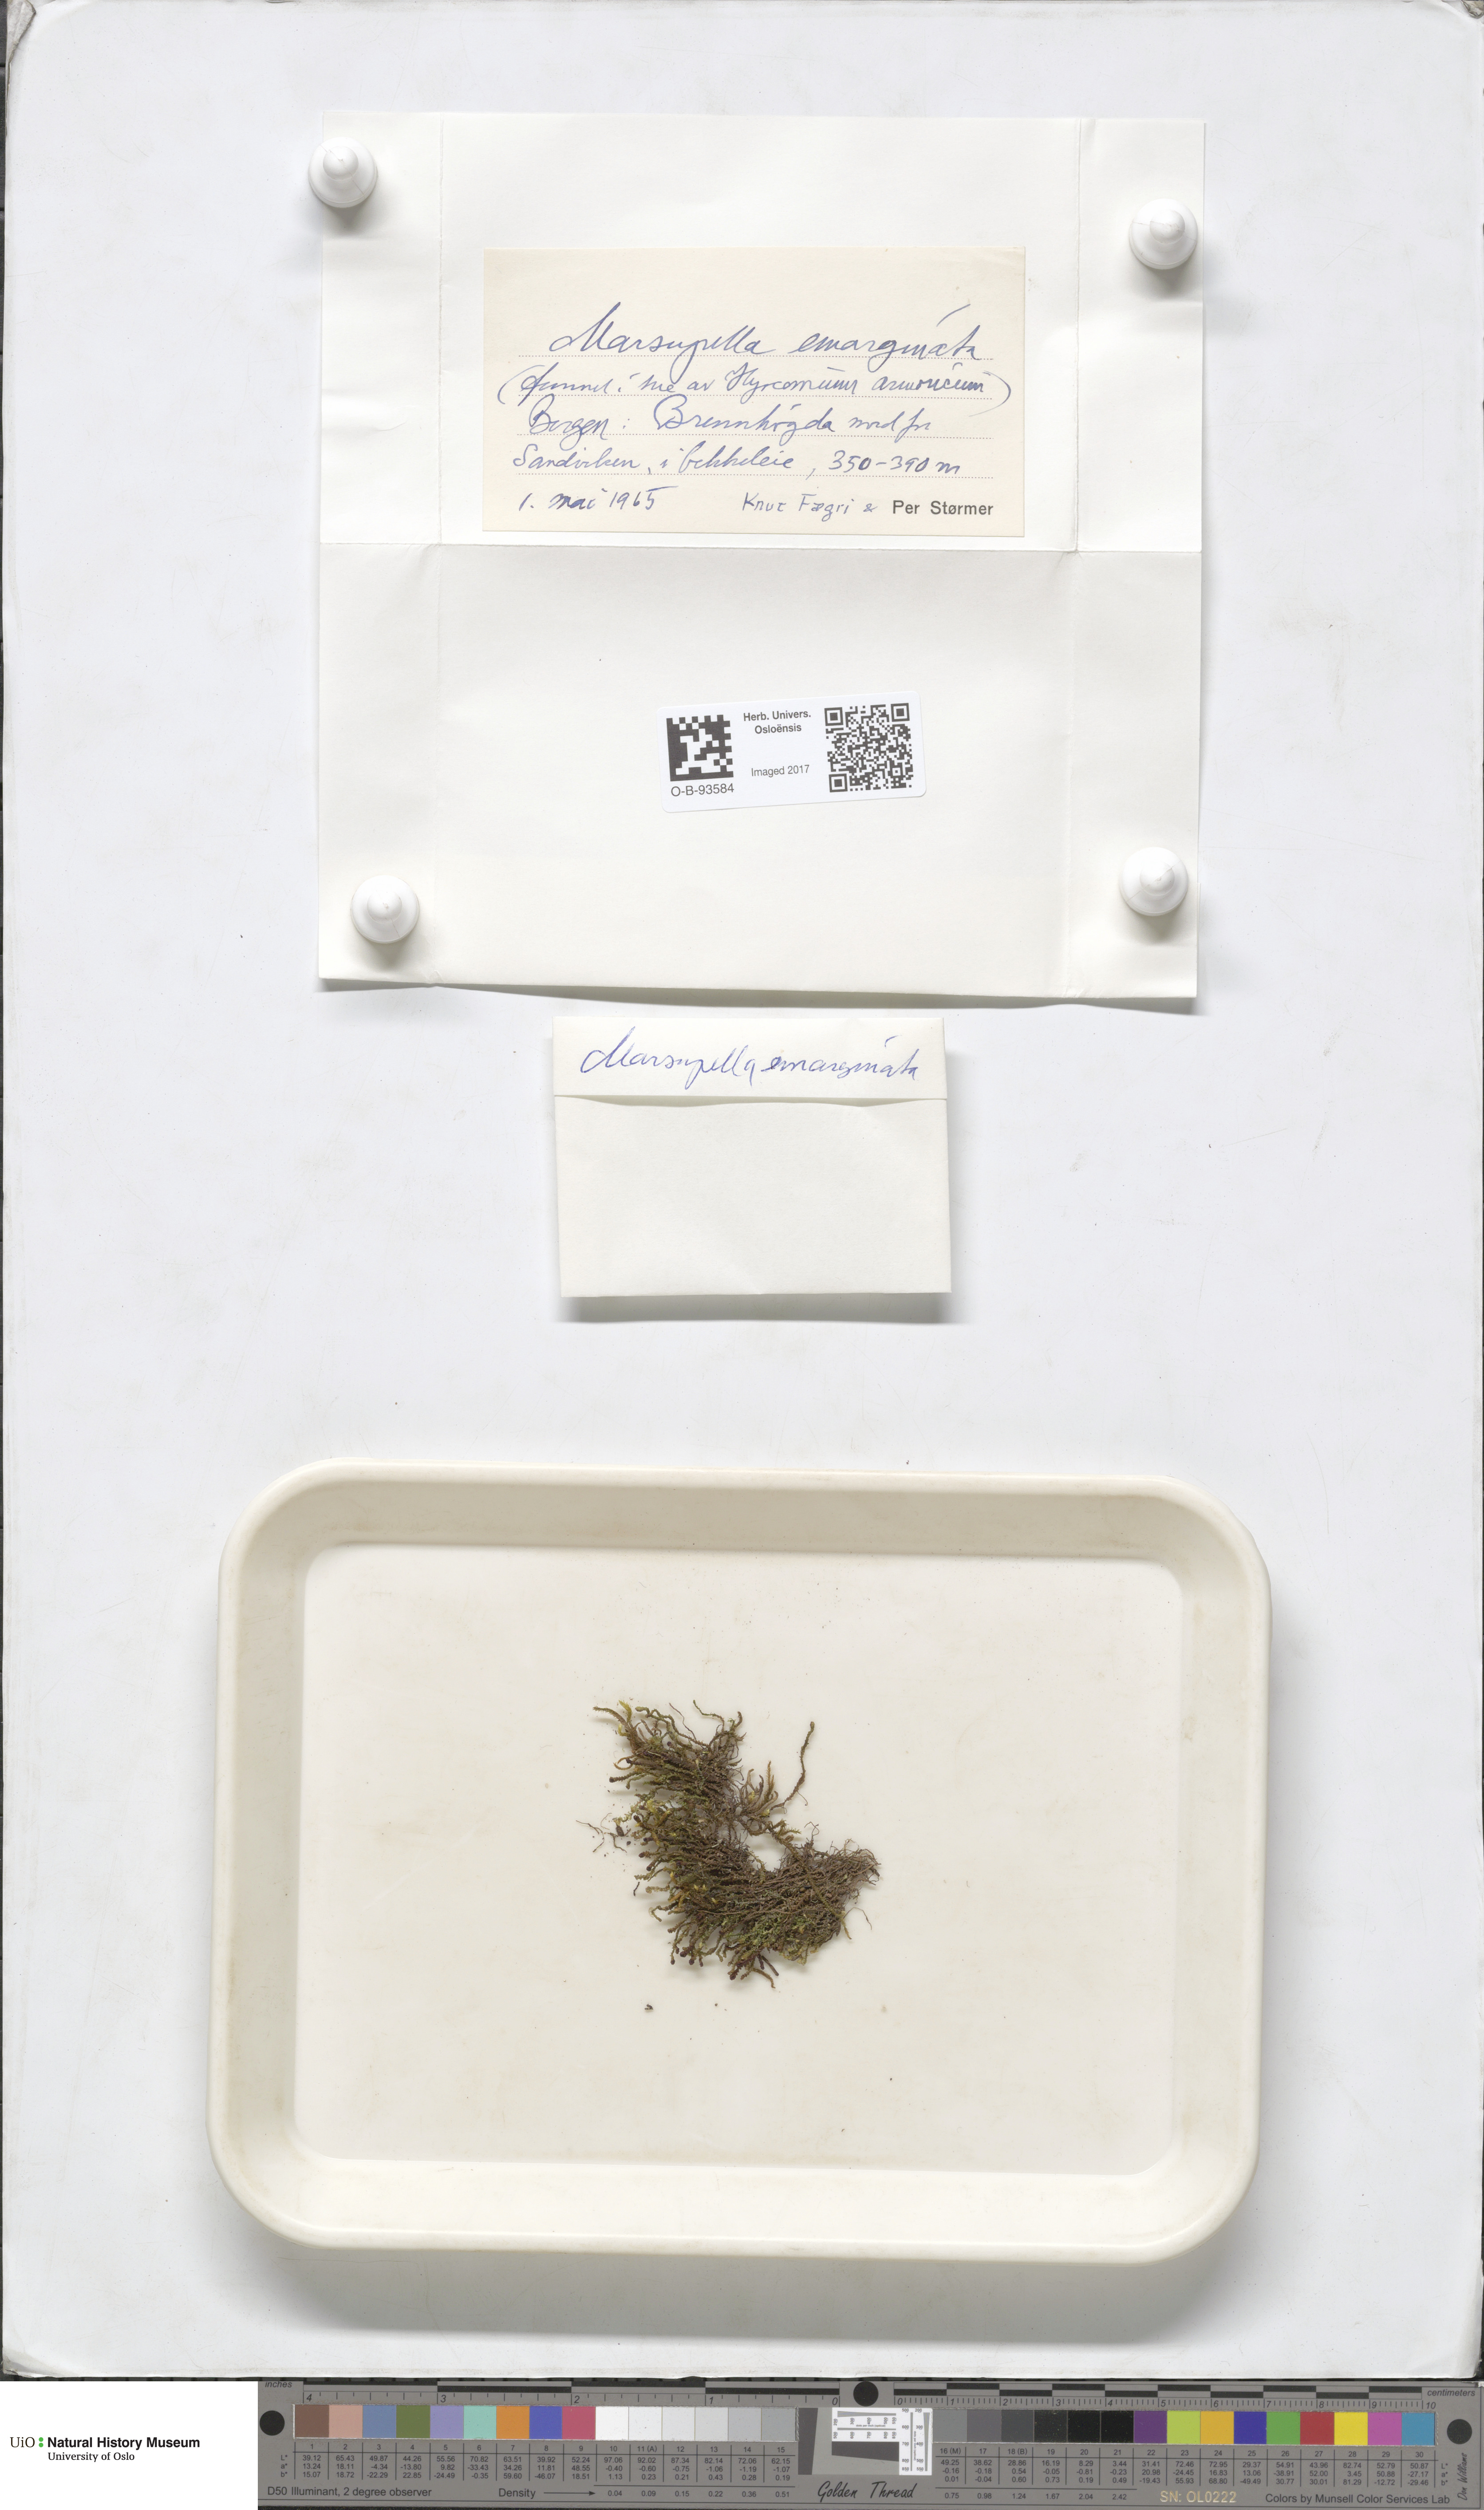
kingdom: Plantae
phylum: Marchantiophyta
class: Jungermanniopsida
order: Jungermanniales
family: Gymnomitriaceae
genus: Marsupella
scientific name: Marsupella emarginata
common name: Notched rustwort
